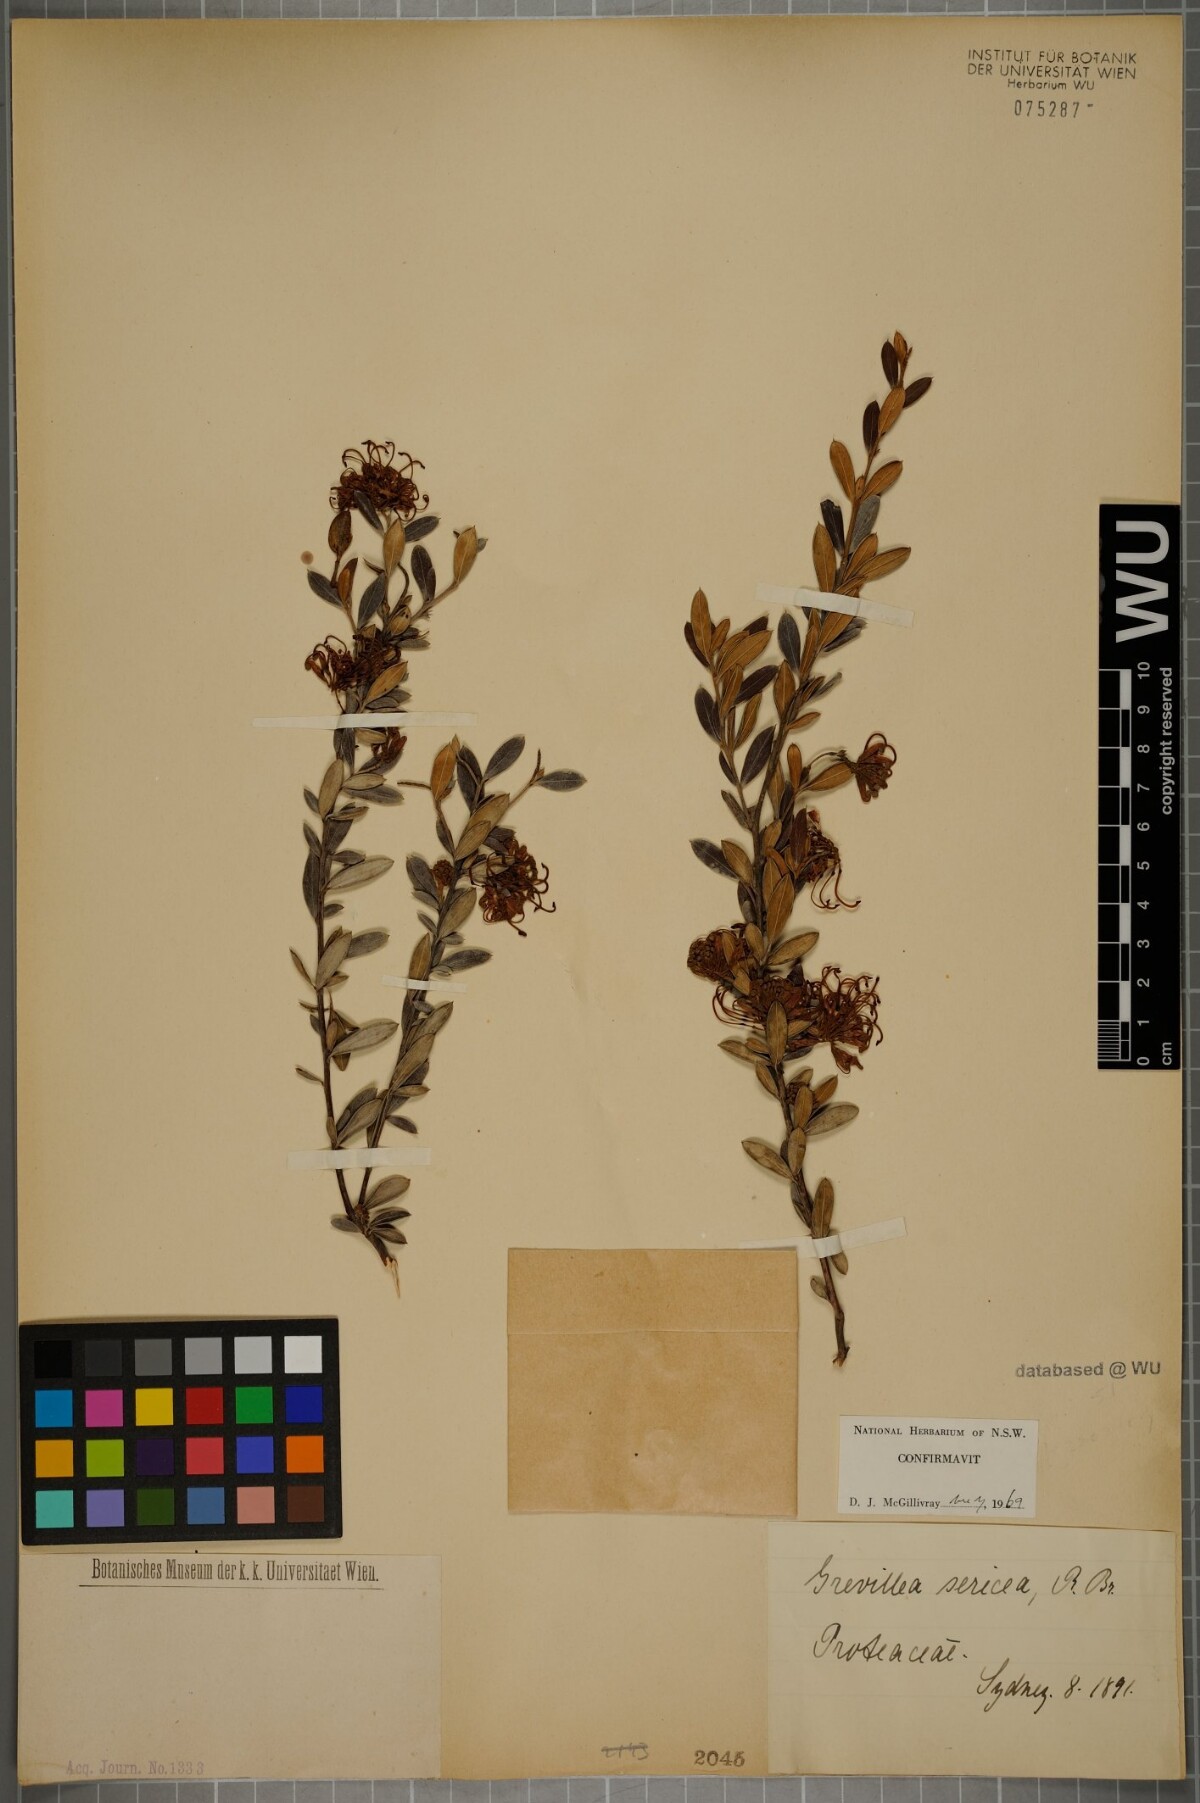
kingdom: Plantae
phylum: Tracheophyta
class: Magnoliopsida
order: Proteales
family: Proteaceae
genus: Grevillea
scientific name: Grevillea sericea
